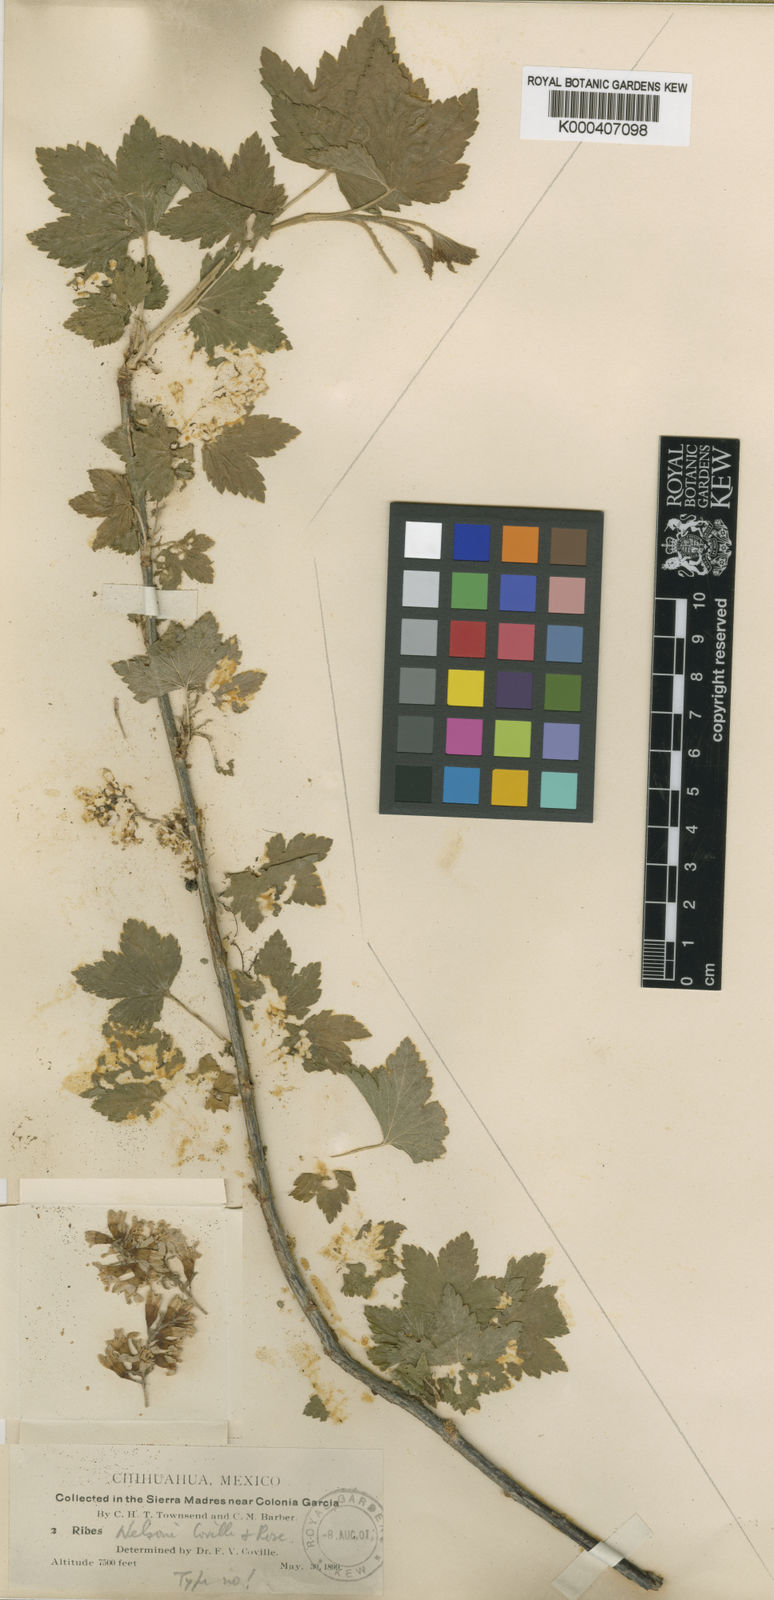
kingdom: Plantae
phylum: Tracheophyta
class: Magnoliopsida
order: Saxifragales
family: Grossulariaceae
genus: Ribes
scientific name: Ribes nelsonii
